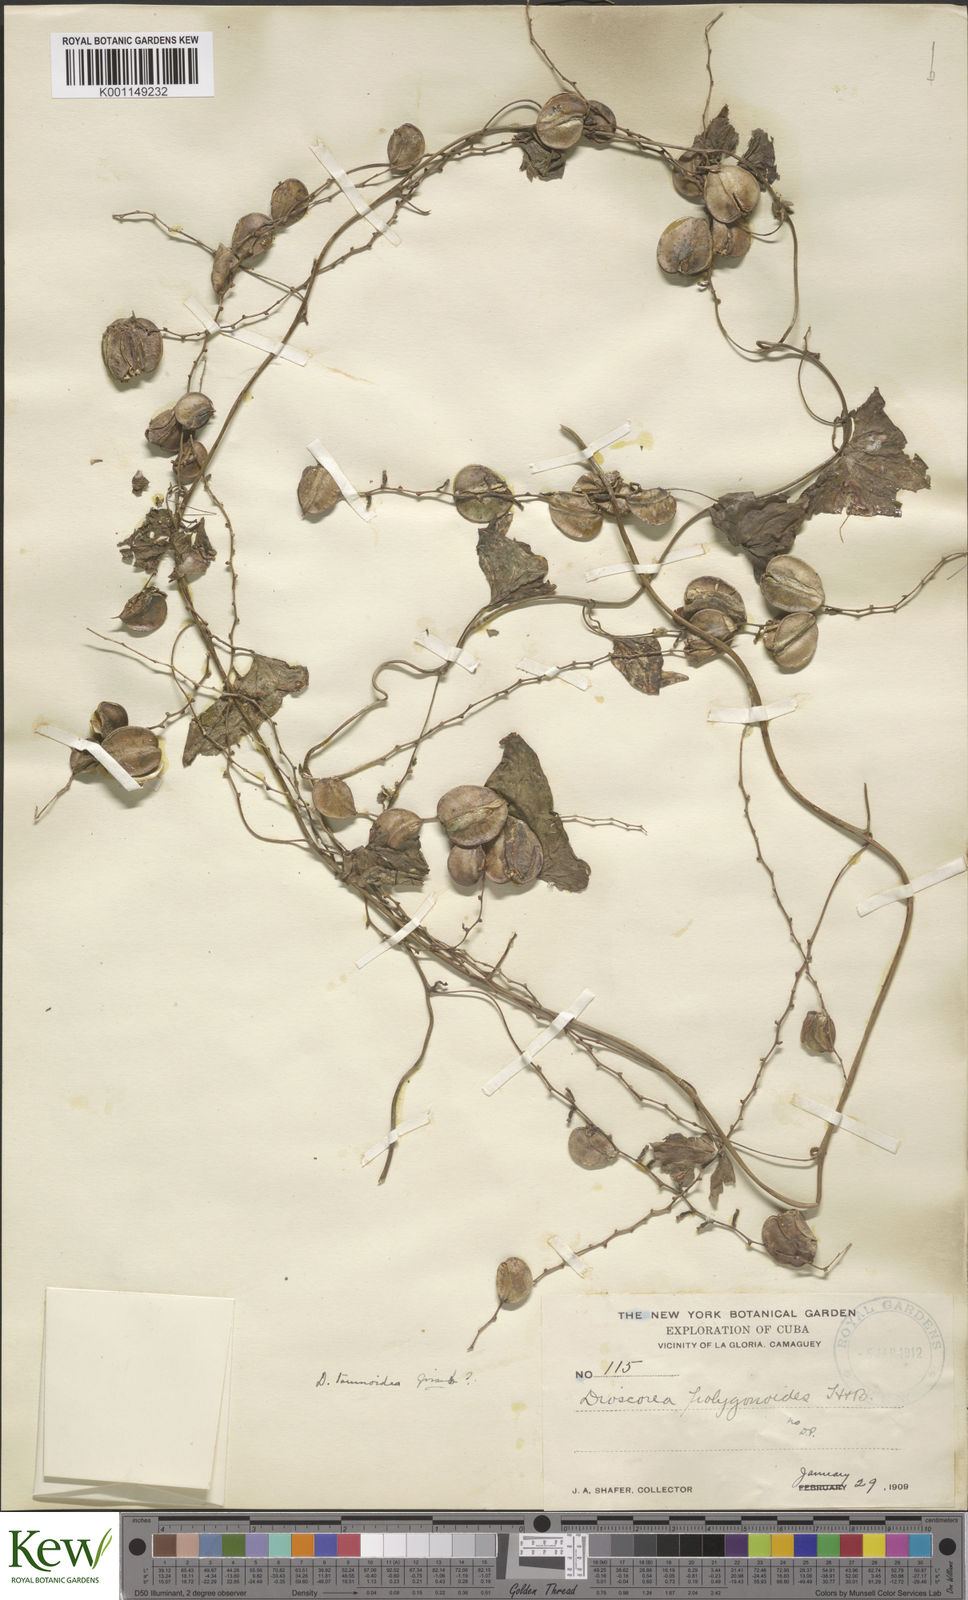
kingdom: Plantae
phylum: Tracheophyta
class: Liliopsida
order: Dioscoreales
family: Dioscoreaceae
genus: Dioscorea
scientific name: Dioscorea tamoidea
